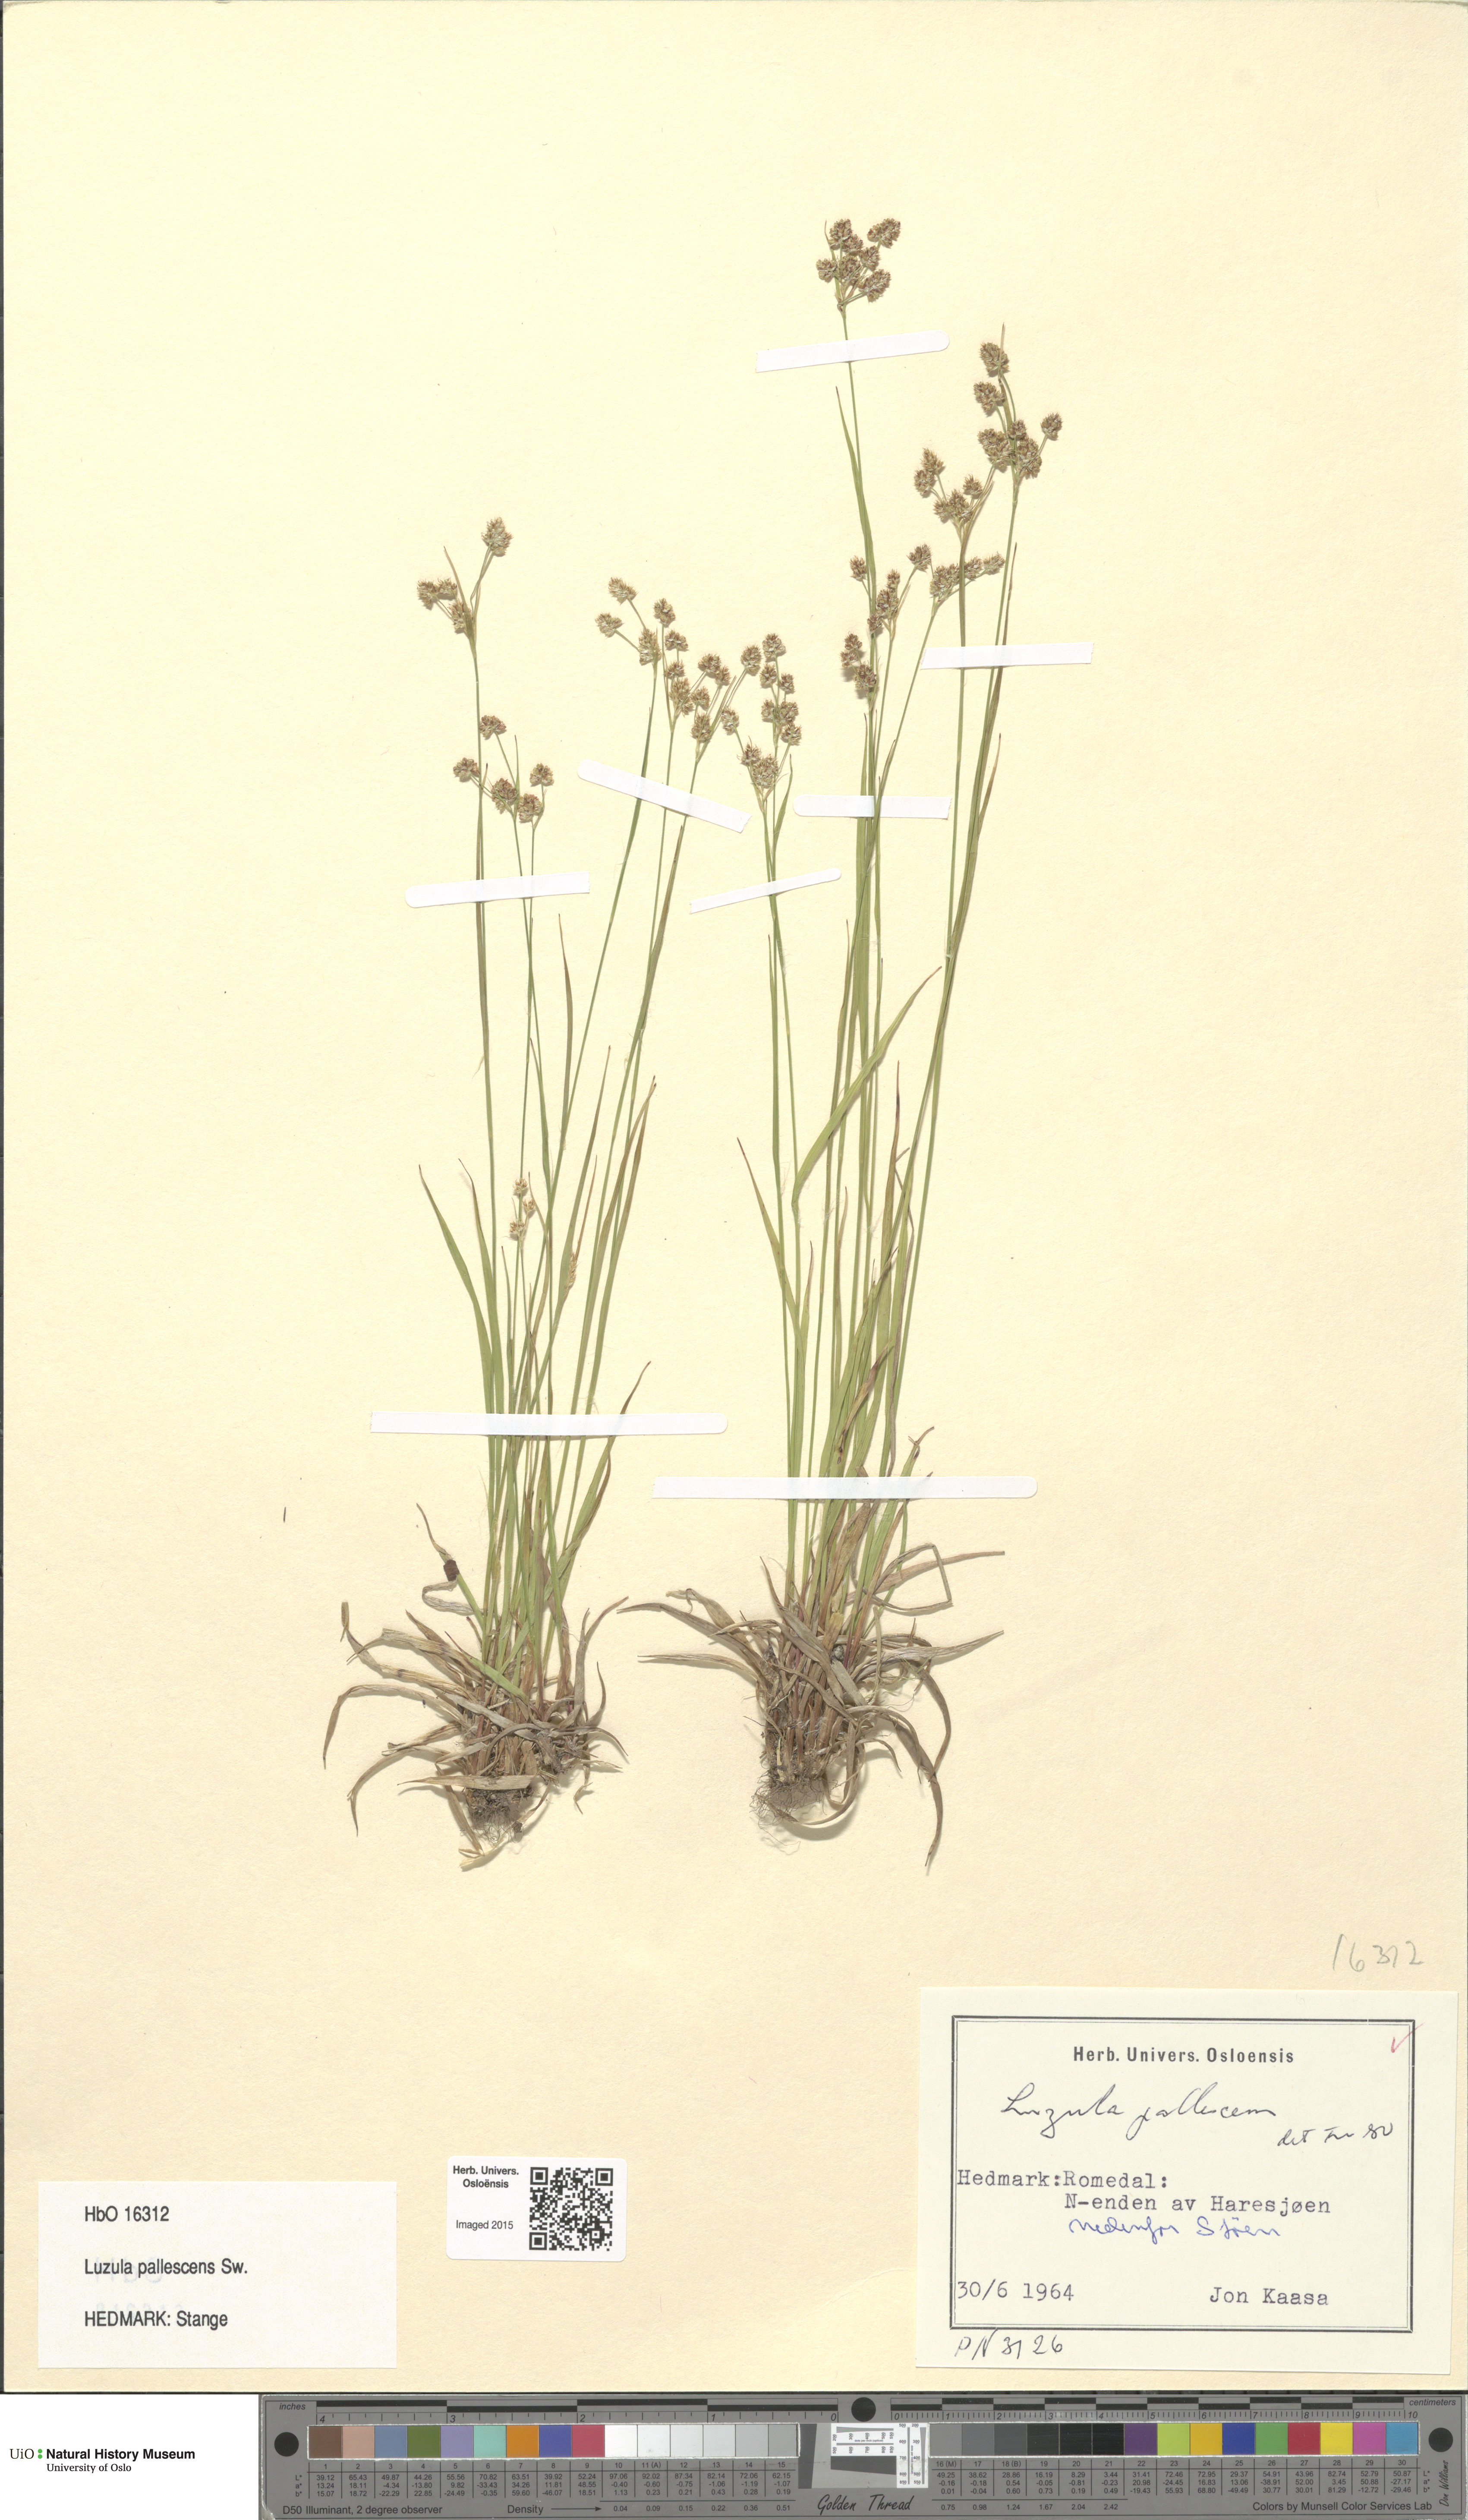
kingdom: Plantae
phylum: Tracheophyta
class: Liliopsida
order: Poales
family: Juncaceae
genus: Luzula
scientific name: Luzula pallescens
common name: Fen wood-rush
